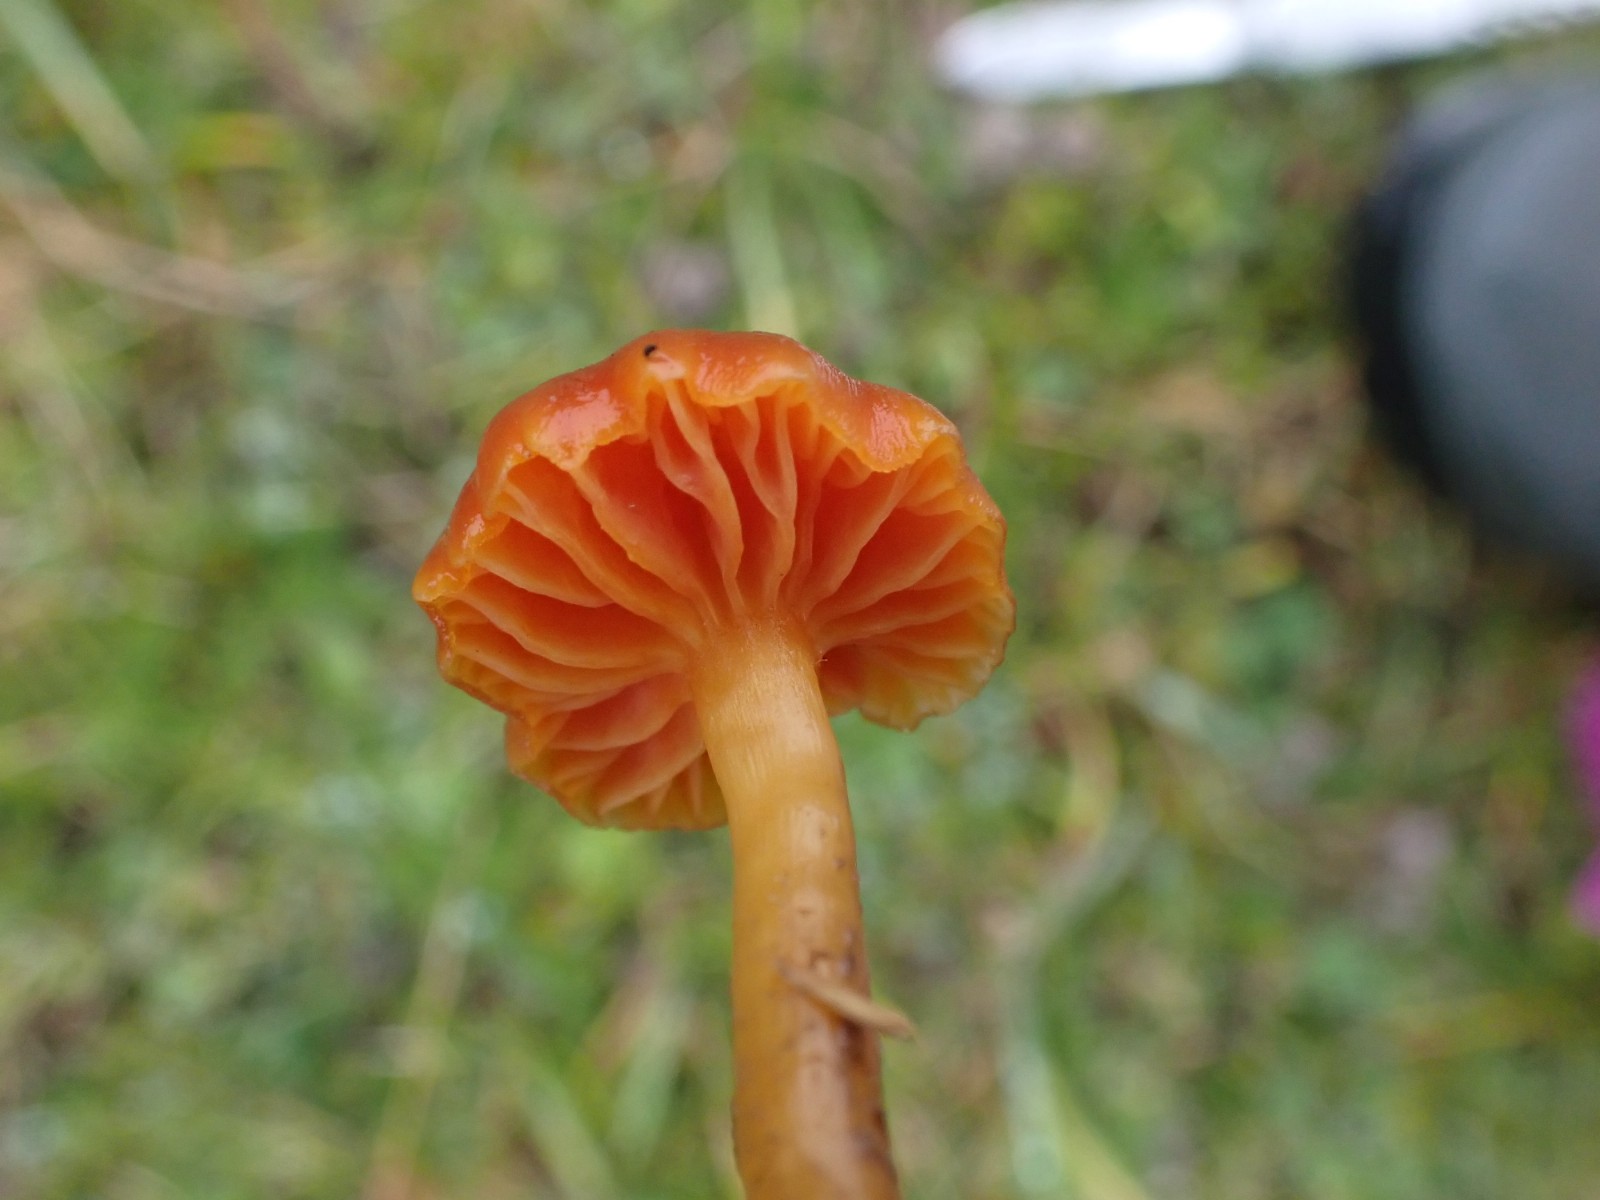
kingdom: Fungi
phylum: Basidiomycota
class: Agaricomycetes
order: Agaricales
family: Hygrophoraceae
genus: Hygrocybe
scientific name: Hygrocybe calciphila
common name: kalk-vokshat
